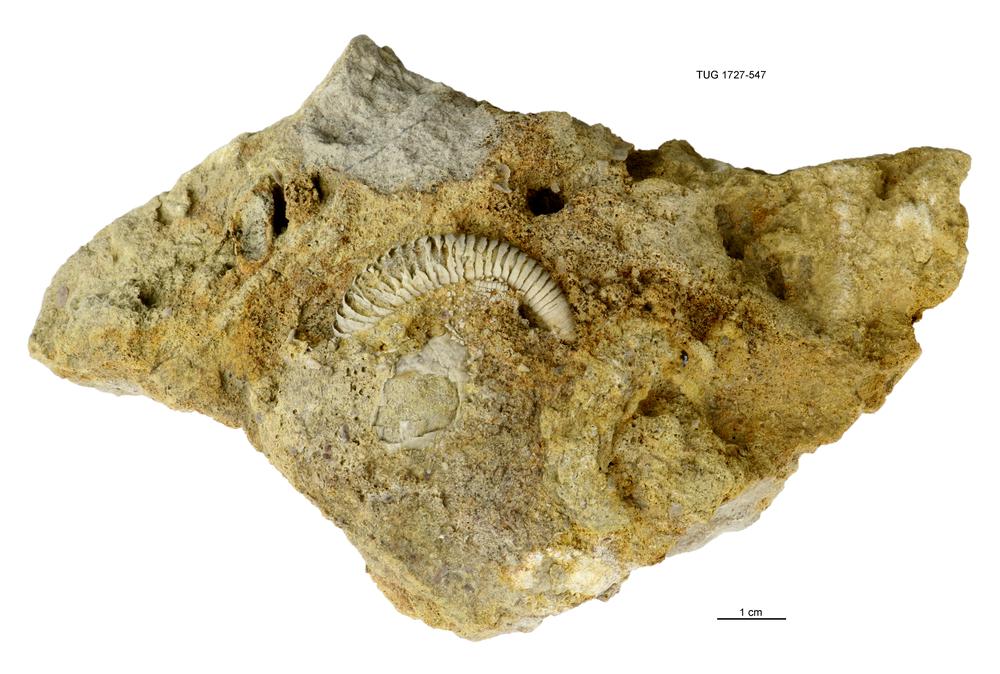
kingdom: Animalia
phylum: Echinodermata
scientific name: Echinodermata
